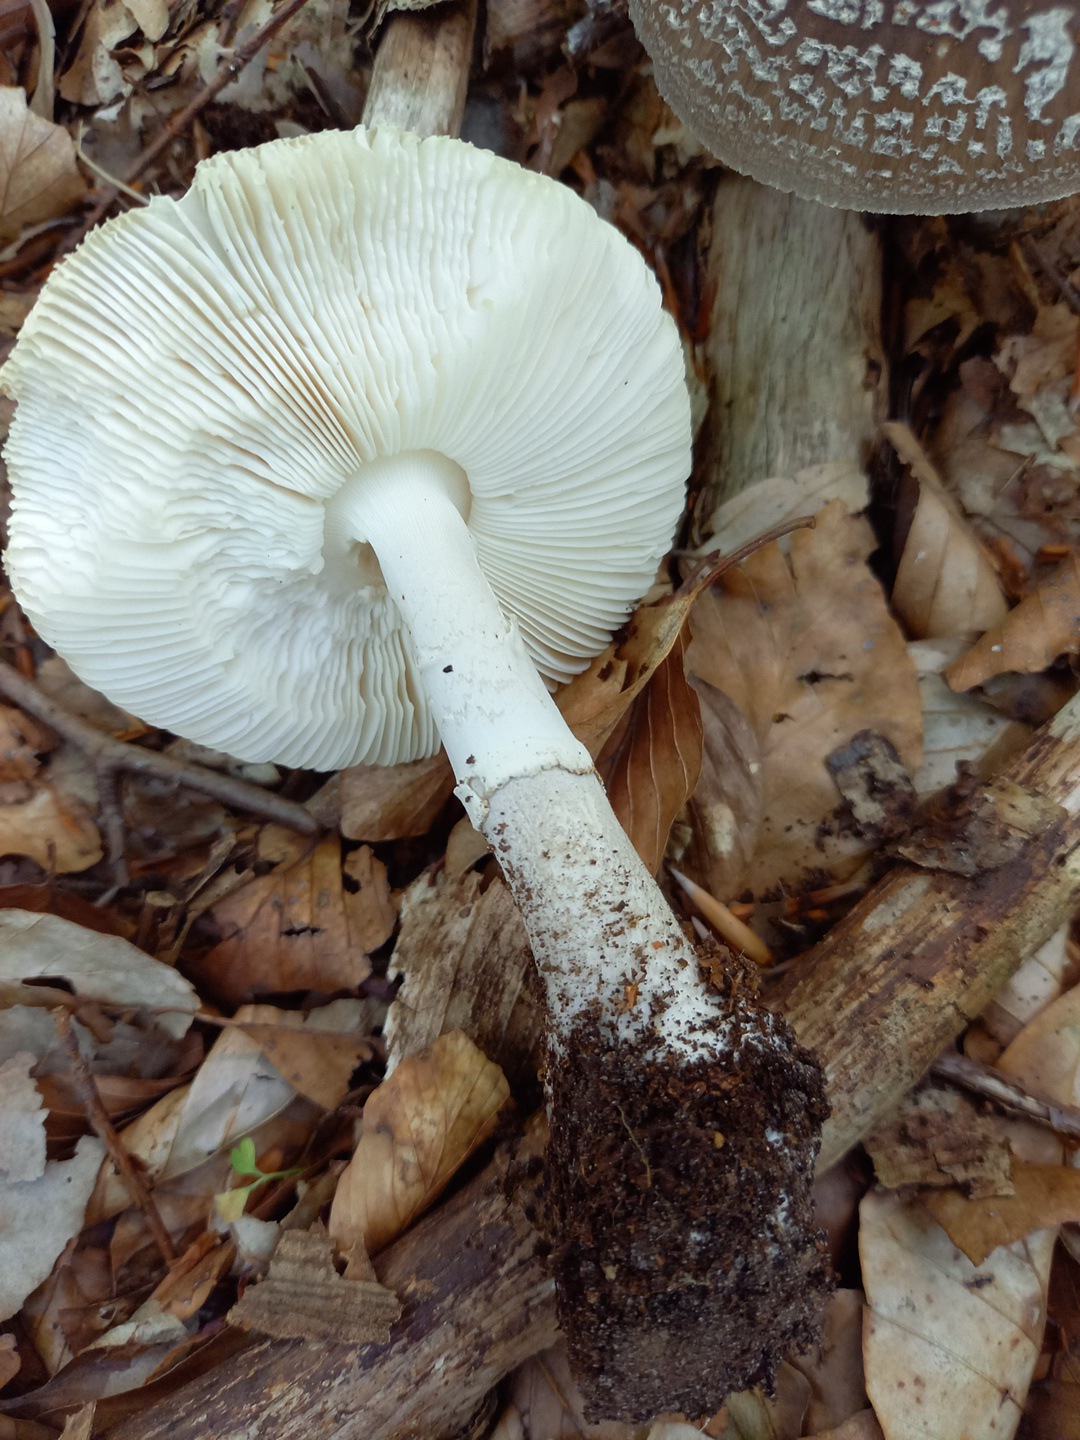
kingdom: Fungi
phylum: Basidiomycota
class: Agaricomycetes
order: Agaricales
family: Amanitaceae
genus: Amanita
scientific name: Amanita
